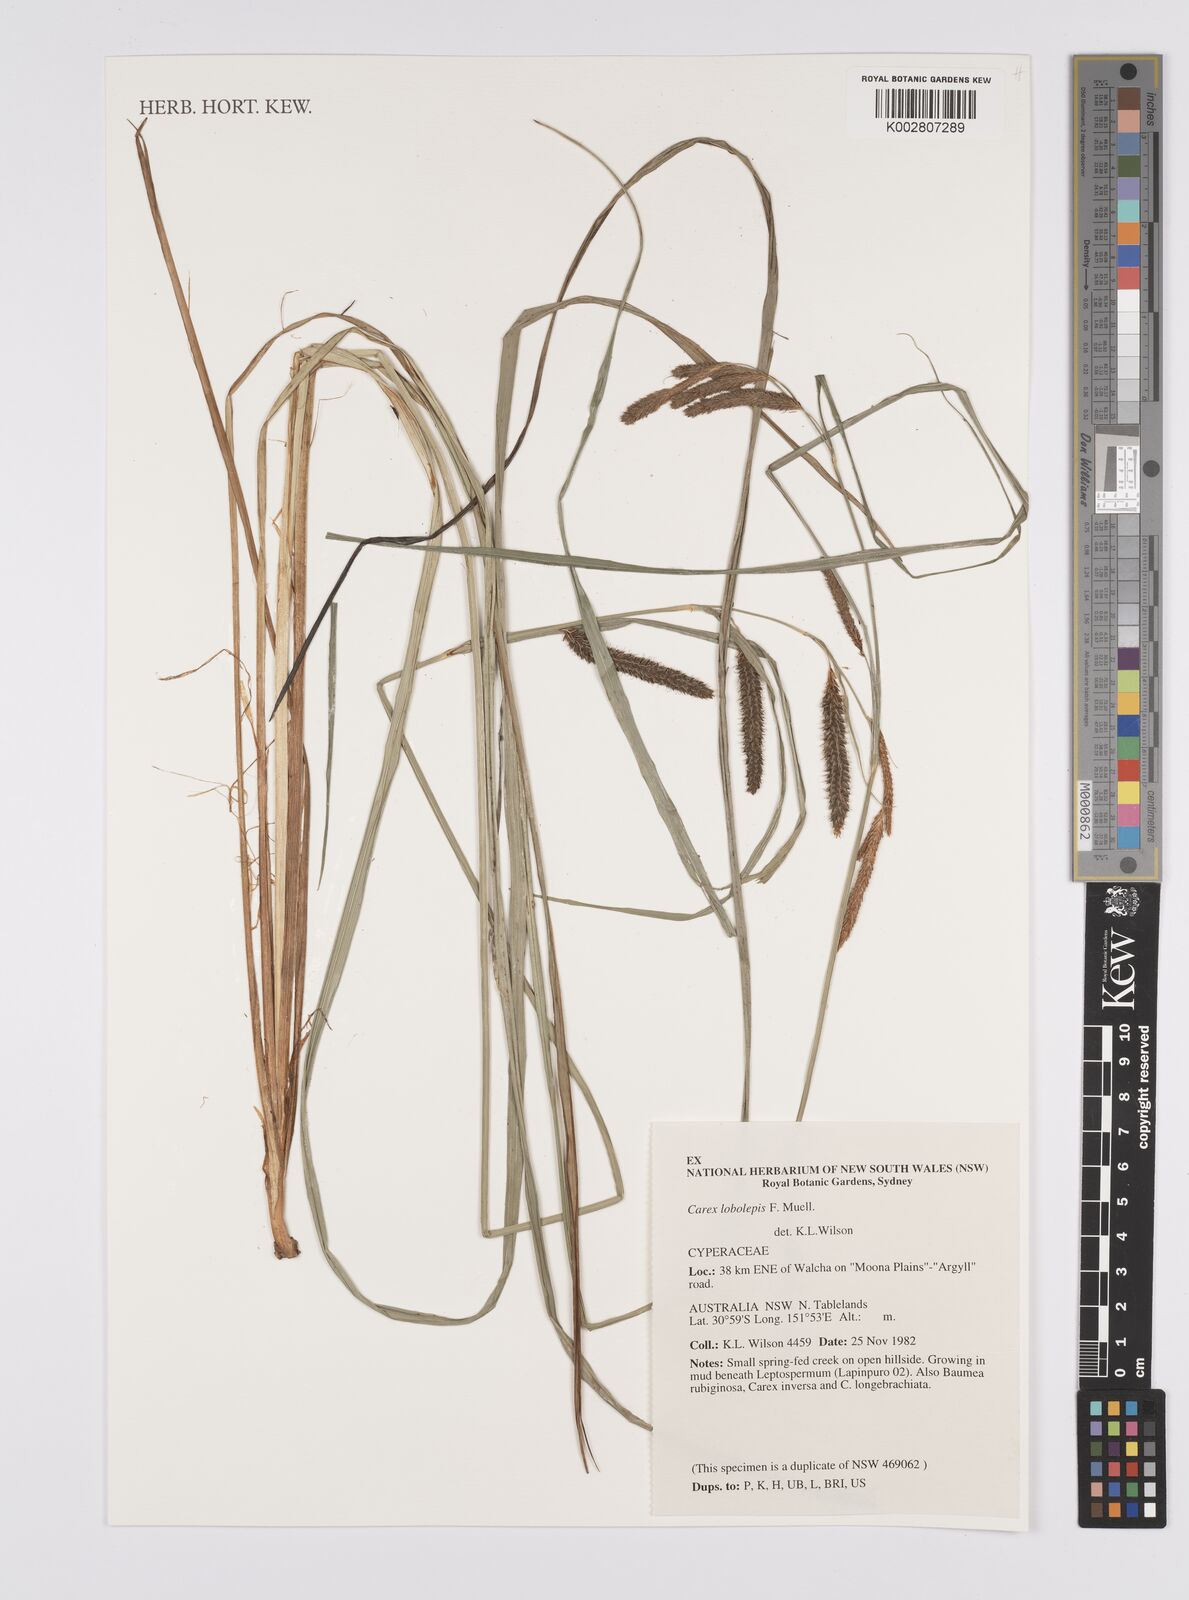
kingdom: Plantae
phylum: Tracheophyta
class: Liliopsida
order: Poales
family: Cyperaceae
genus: Carex
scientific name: Carex lobolepis
